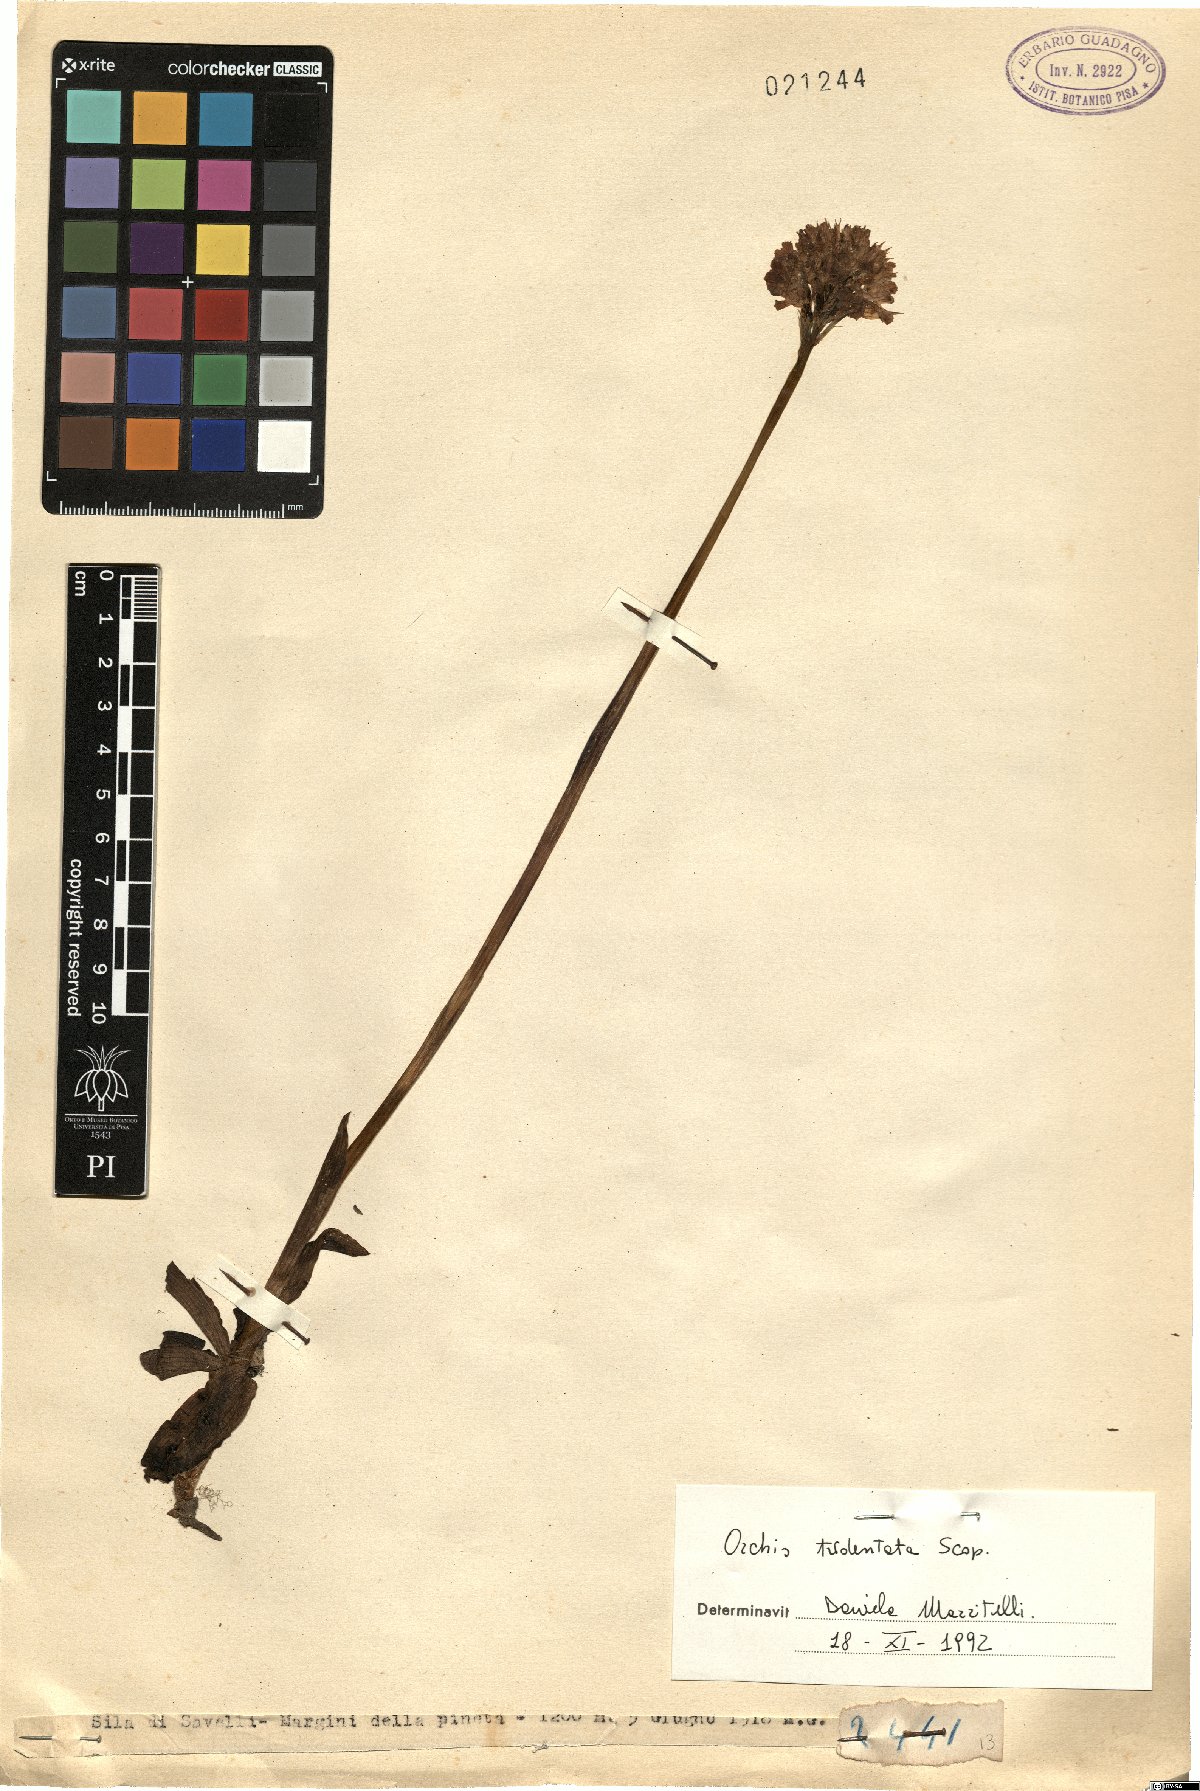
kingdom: Plantae
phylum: Tracheophyta
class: Liliopsida
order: Asparagales
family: Orchidaceae
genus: Neotinea
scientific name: Neotinea tridentata
